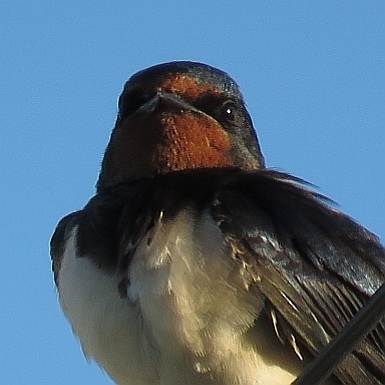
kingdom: Animalia
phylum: Chordata
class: Aves
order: Passeriformes
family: Hirundinidae
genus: Hirundo
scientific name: Hirundo rustica
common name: Barn swallow
